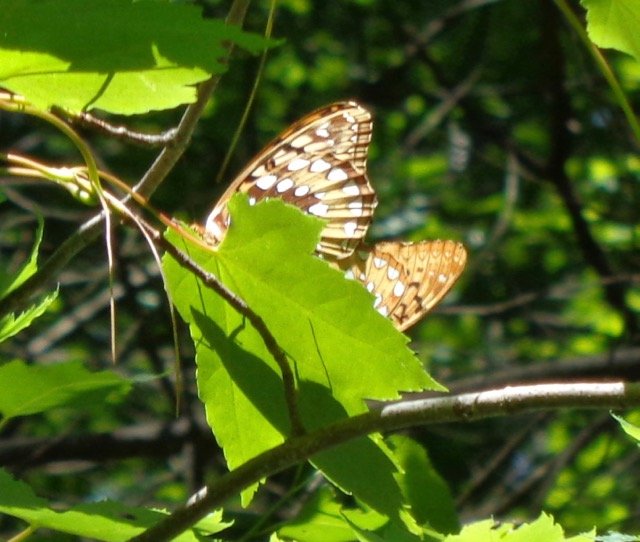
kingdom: Animalia
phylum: Arthropoda
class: Insecta
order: Lepidoptera
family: Nymphalidae
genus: Speyeria
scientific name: Speyeria cybele
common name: Great Spangled Fritillary
